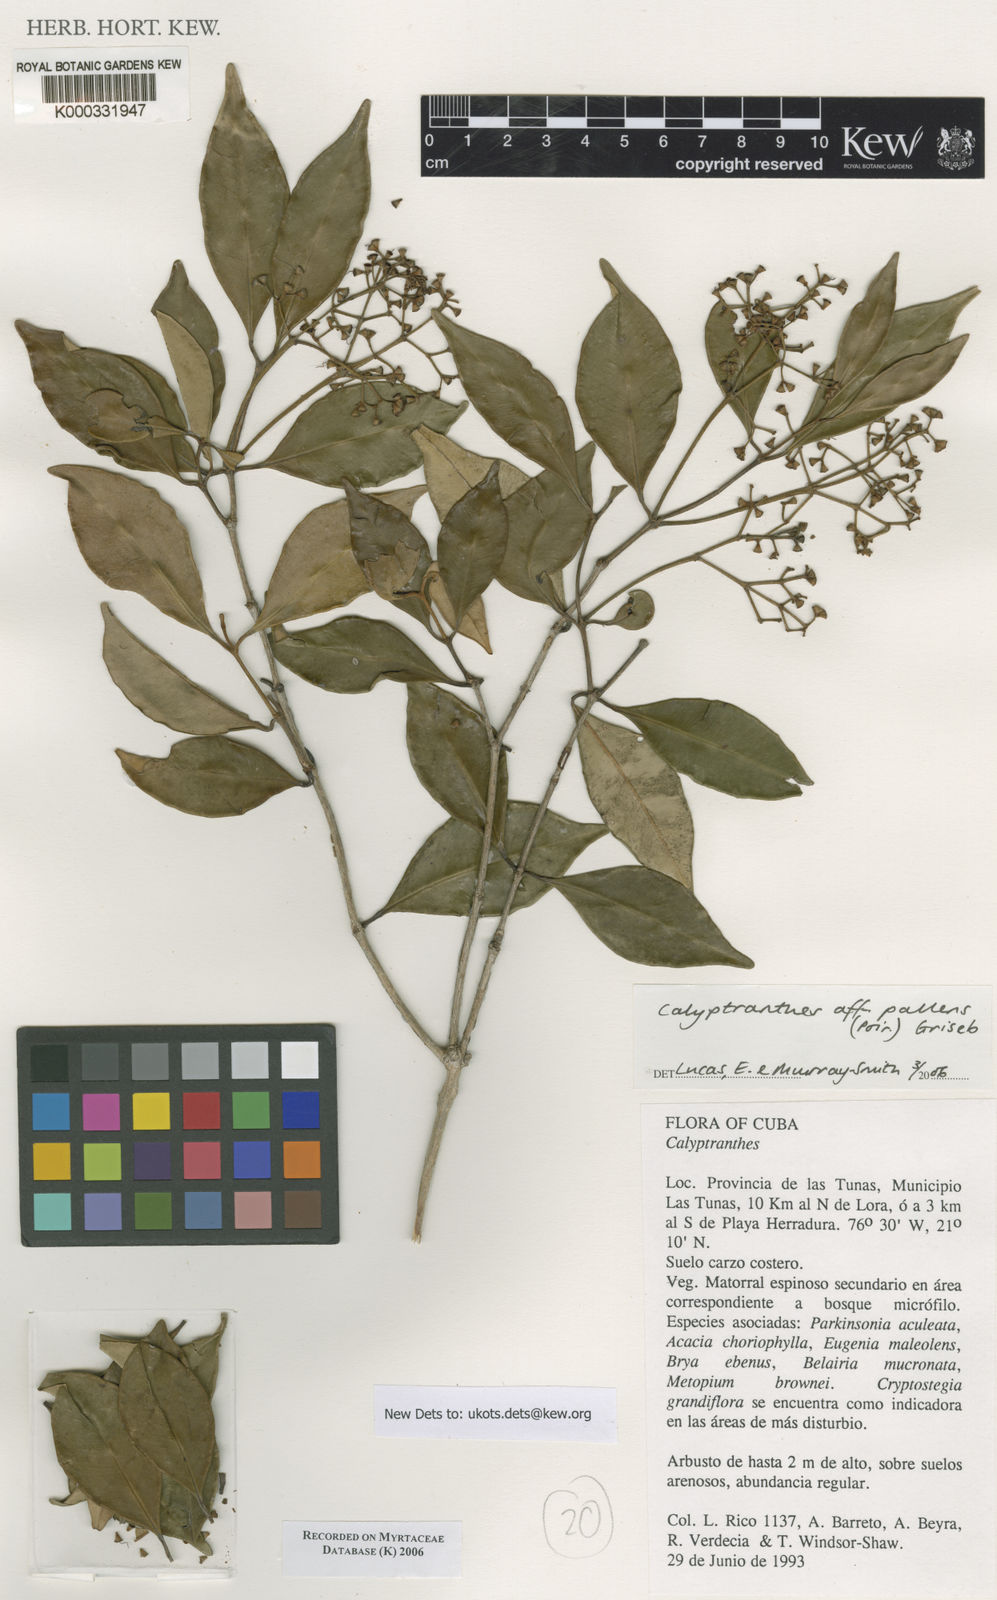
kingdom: Plantae
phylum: Tracheophyta
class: Magnoliopsida
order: Myrtales
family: Myrtaceae
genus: Myrcia
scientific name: Myrcia neopallens
